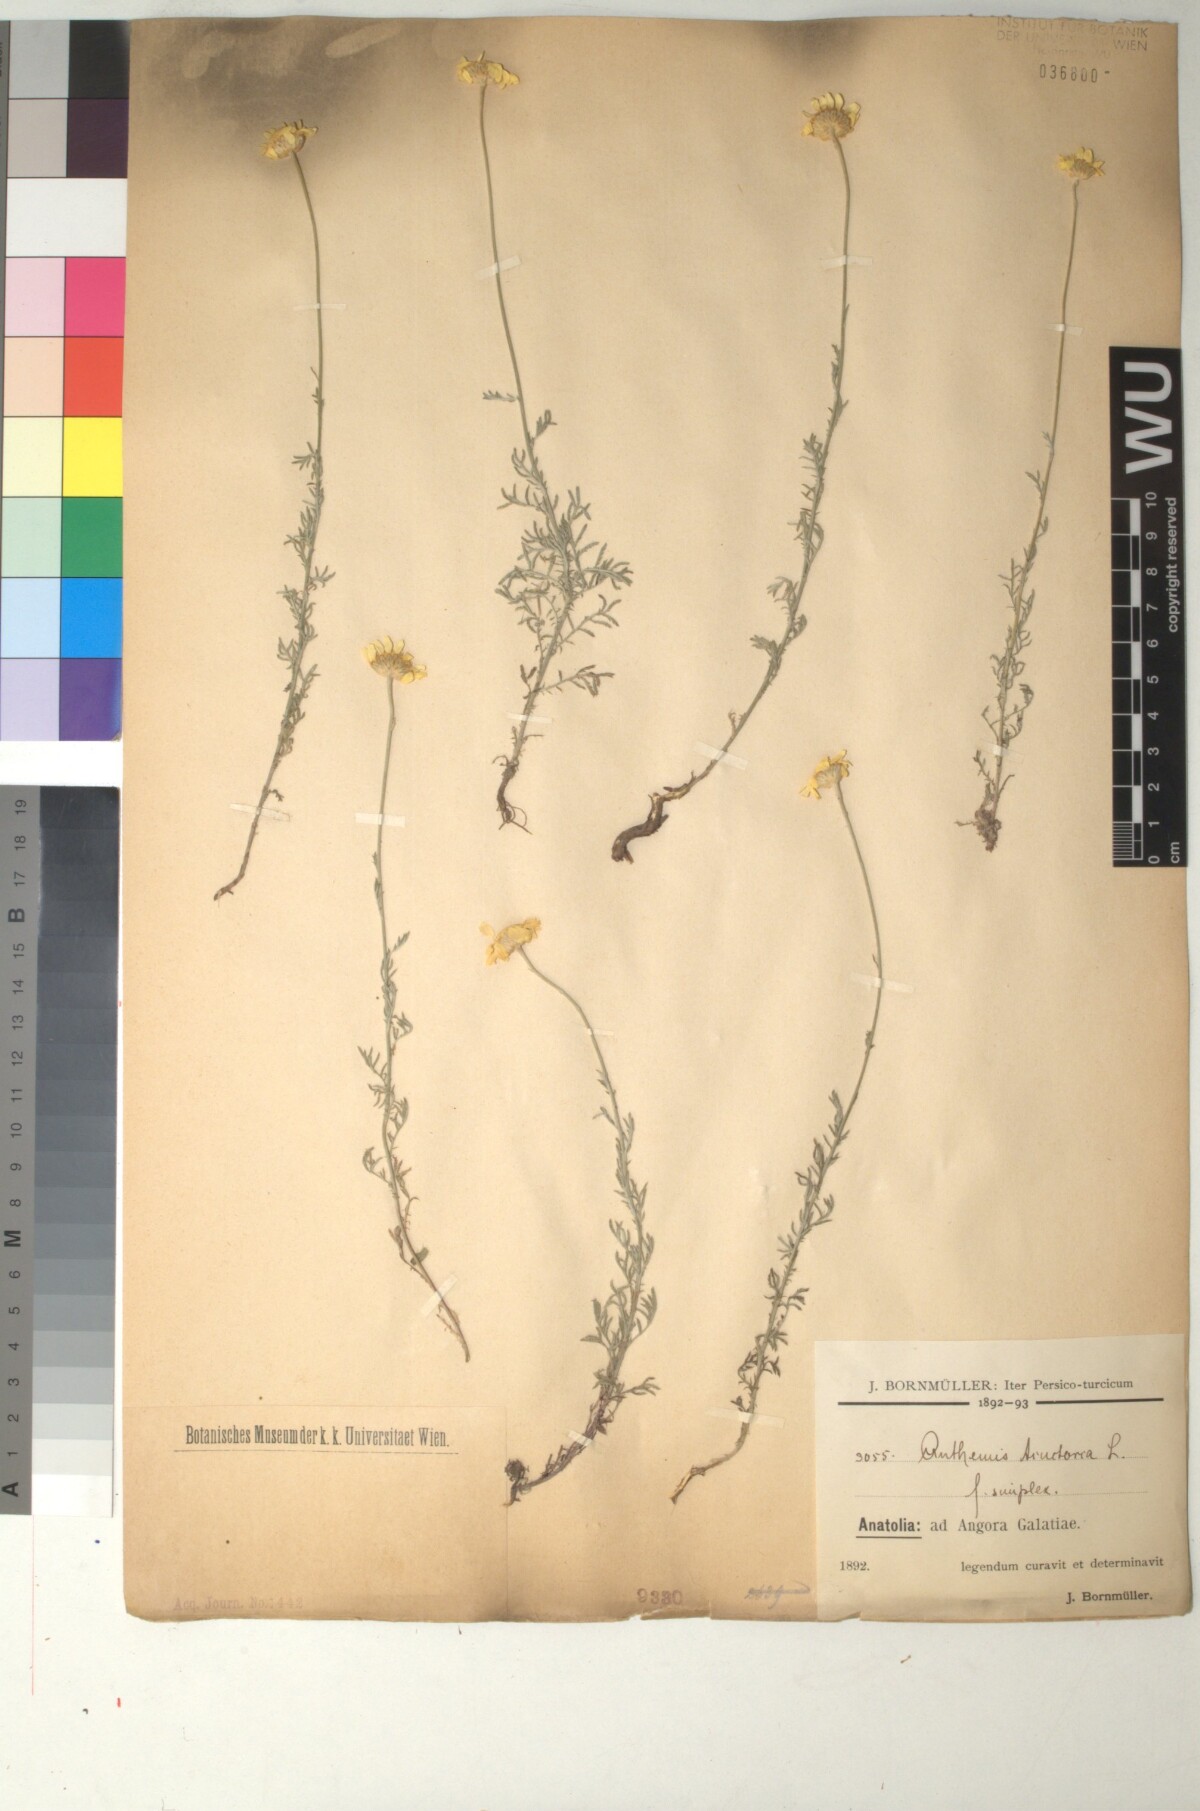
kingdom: Plantae
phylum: Tracheophyta
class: Magnoliopsida
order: Asterales
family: Asteraceae
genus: Cota
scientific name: Cota tinctoria
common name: Golden chamomile
